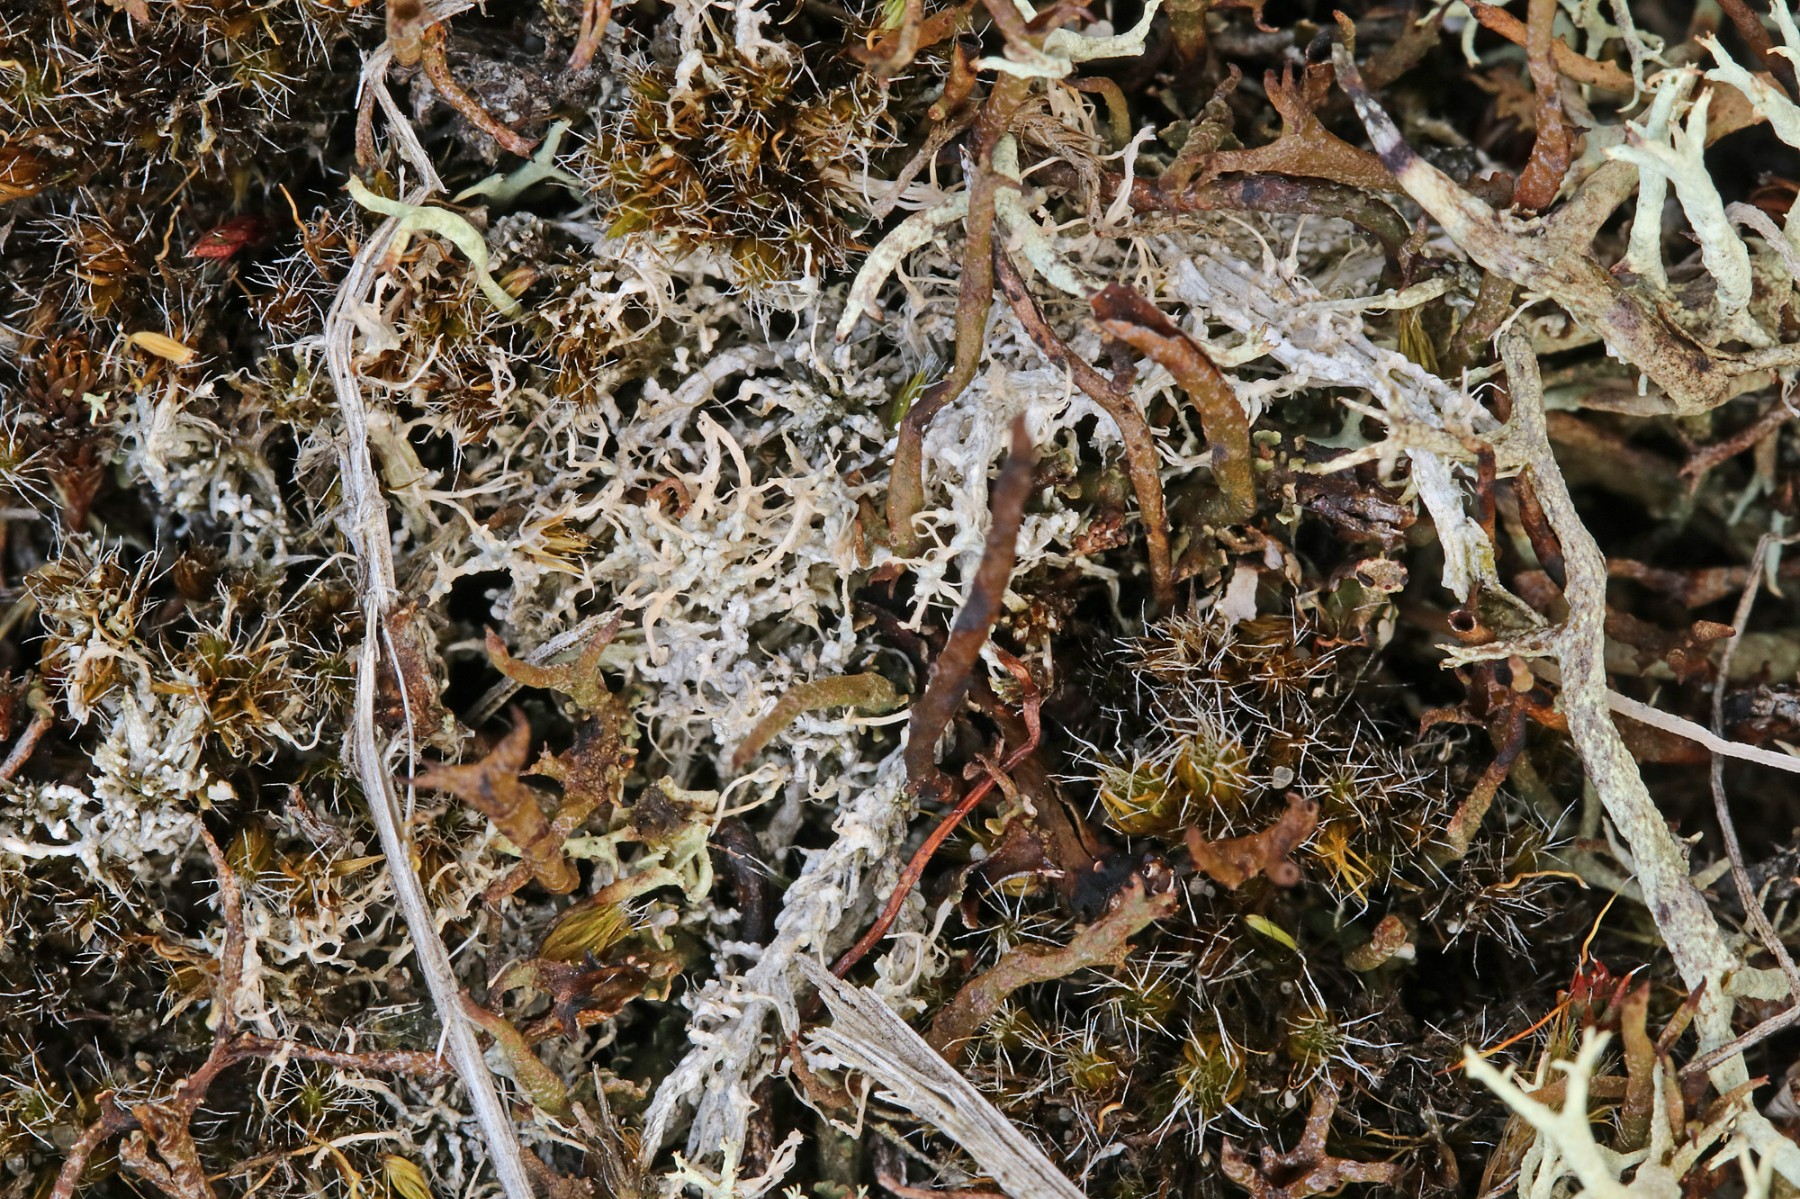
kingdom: Fungi
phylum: Ascomycota
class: Lecanoromycetes
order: Pertusariales
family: Ochrolechiaceae
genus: Ochrolechia
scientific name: Ochrolechia frigida
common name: fjeld-blegskivelav
